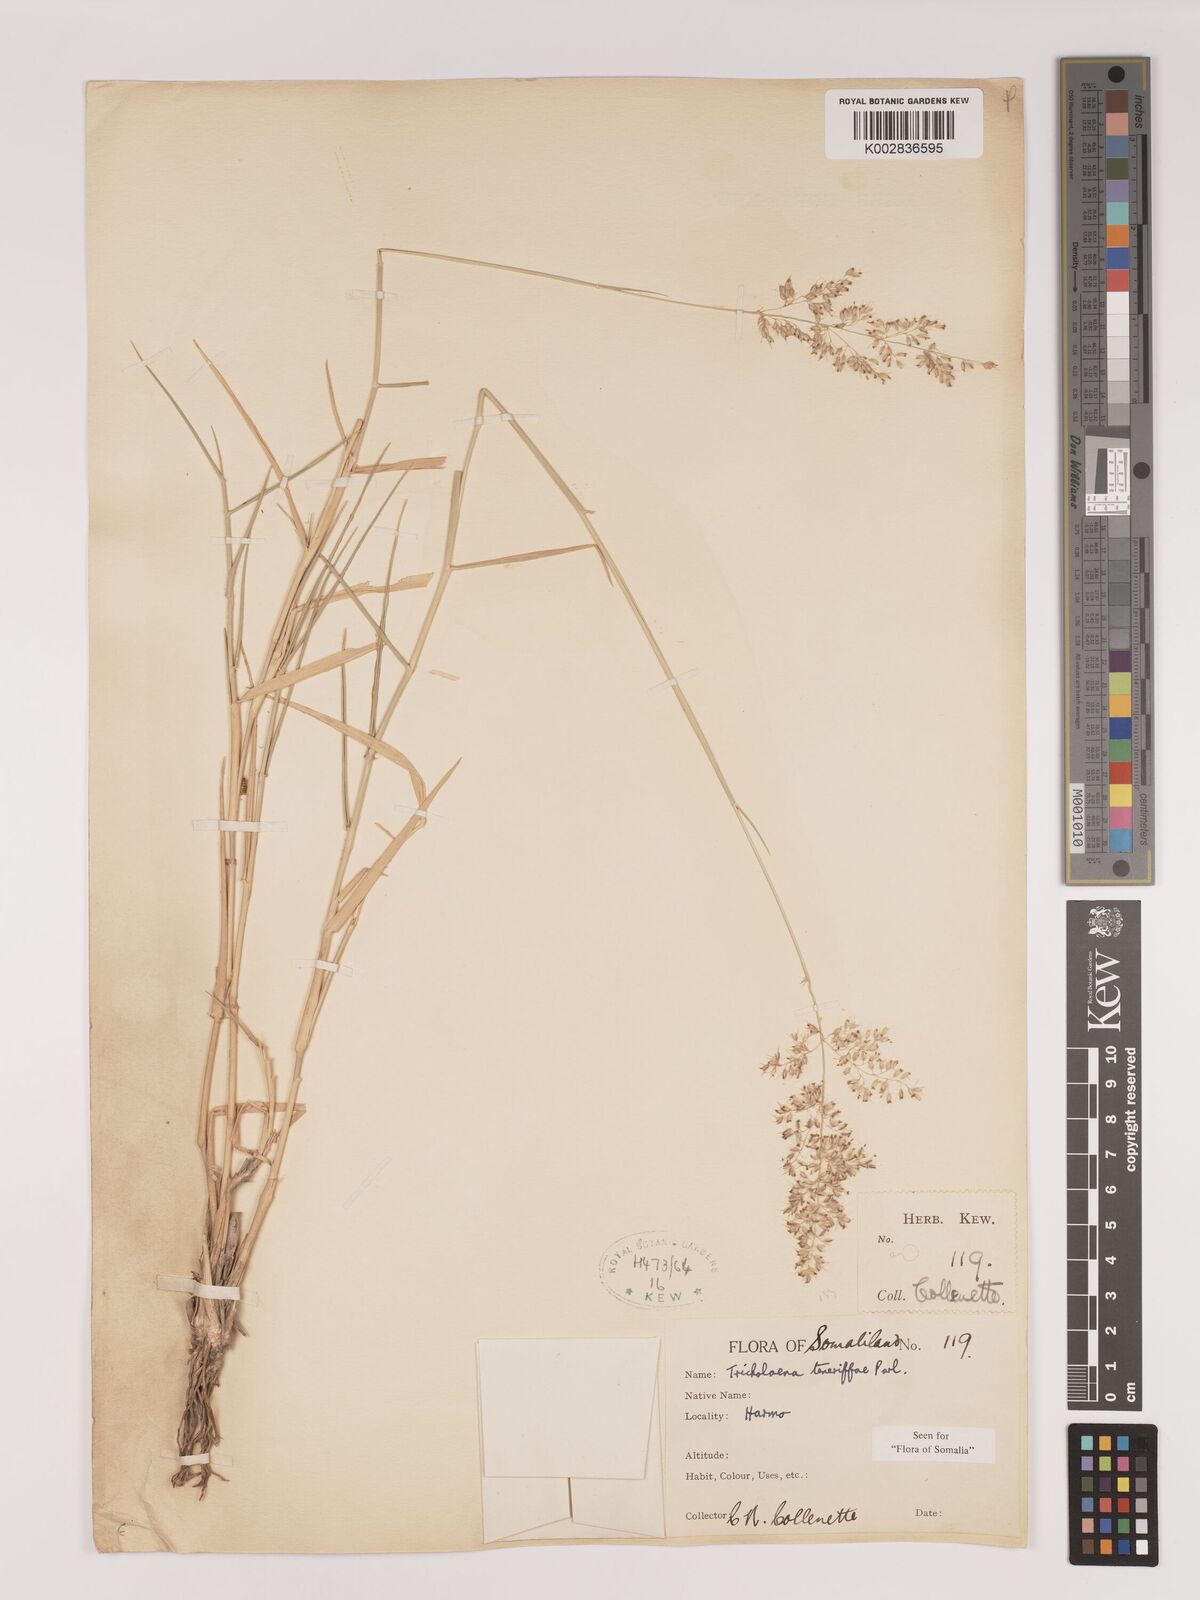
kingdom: Plantae
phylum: Tracheophyta
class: Liliopsida
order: Poales
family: Poaceae
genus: Tricholaena
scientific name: Tricholaena teneriffae
